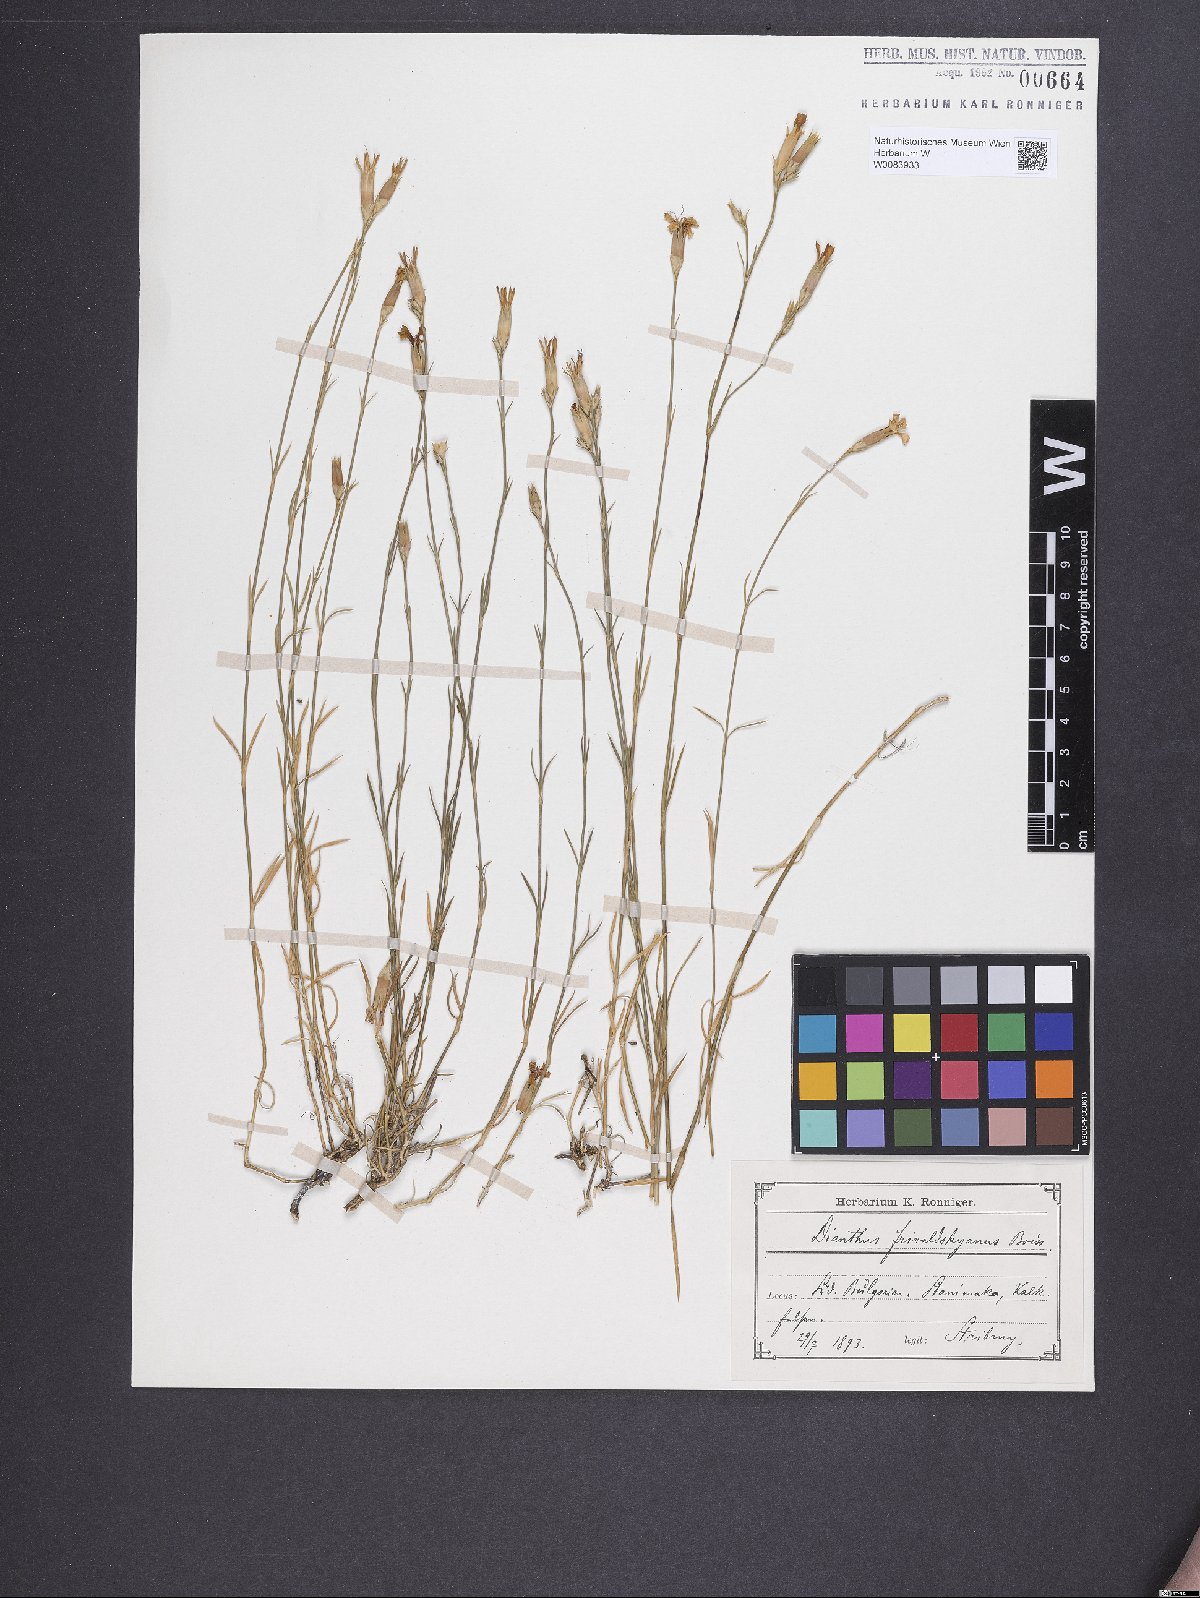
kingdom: Plantae
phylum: Tracheophyta
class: Magnoliopsida
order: Caryophyllales
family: Caryophyllaceae
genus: Dianthus
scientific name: Dianthus gracilis
